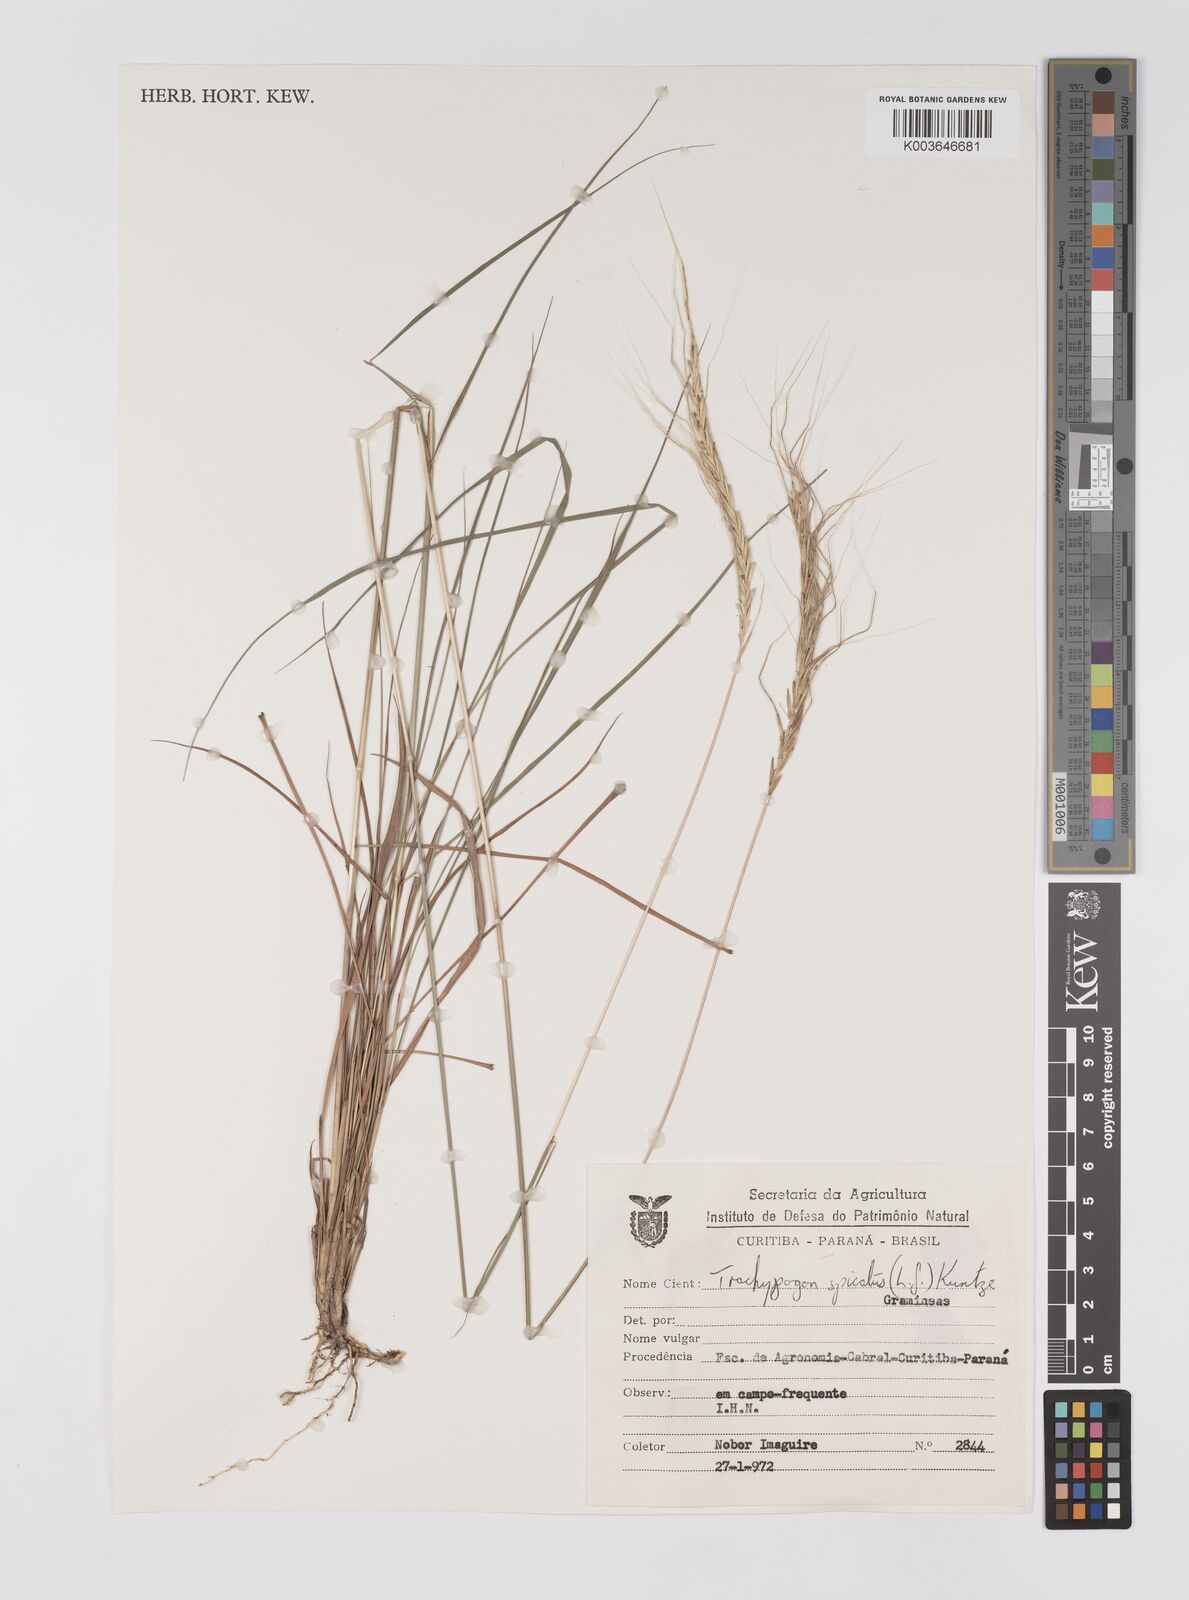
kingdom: Plantae
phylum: Tracheophyta
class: Liliopsida
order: Poales
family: Poaceae
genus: Trachypogon
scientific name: Trachypogon spicatus
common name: Crinkle-awn
